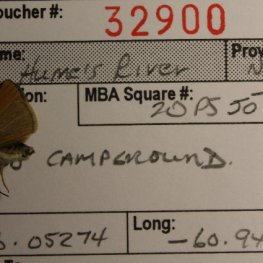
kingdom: Animalia
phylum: Arthropoda
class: Insecta
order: Lepidoptera
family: Hesperiidae
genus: Thymelicus
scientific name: Thymelicus lineola
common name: European Skipper
